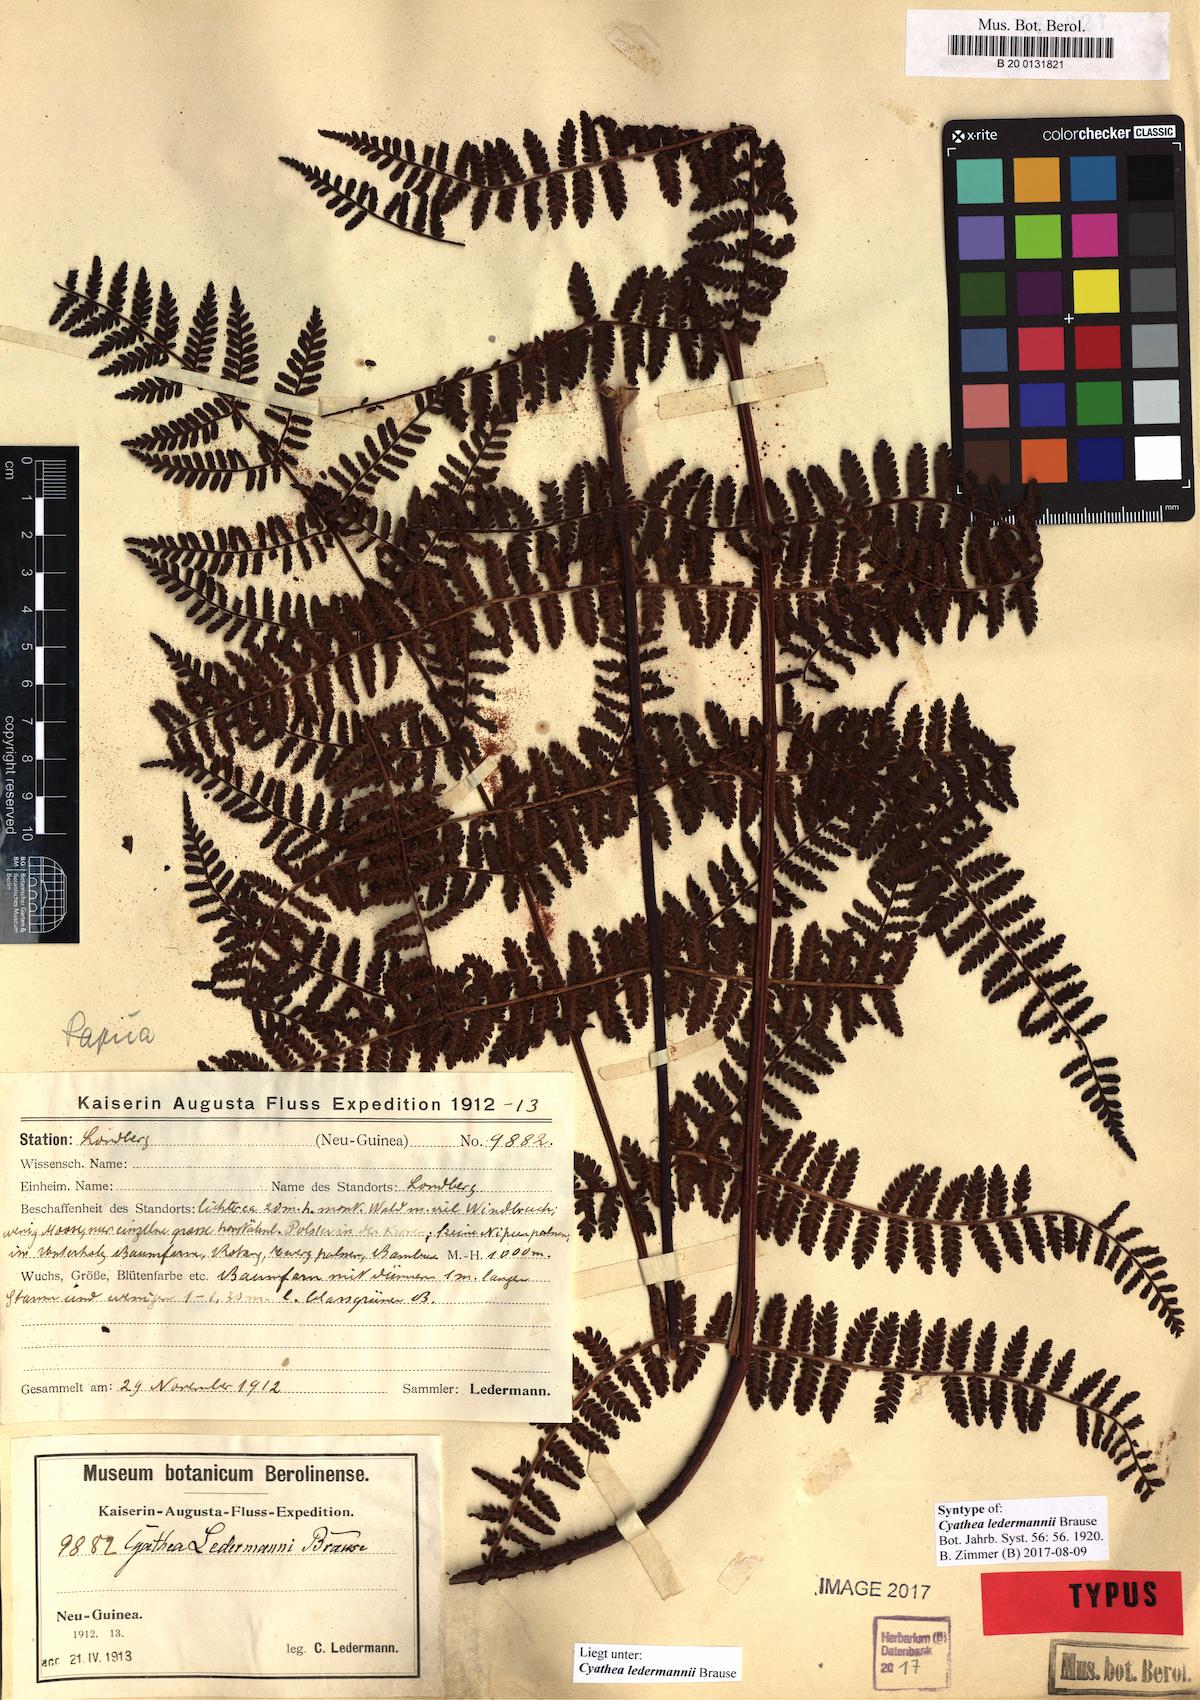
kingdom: Plantae
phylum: Tracheophyta
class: Polypodiopsida
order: Cyatheales
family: Cyatheaceae
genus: Sphaeropteris
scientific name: Sphaeropteris ledermannii
